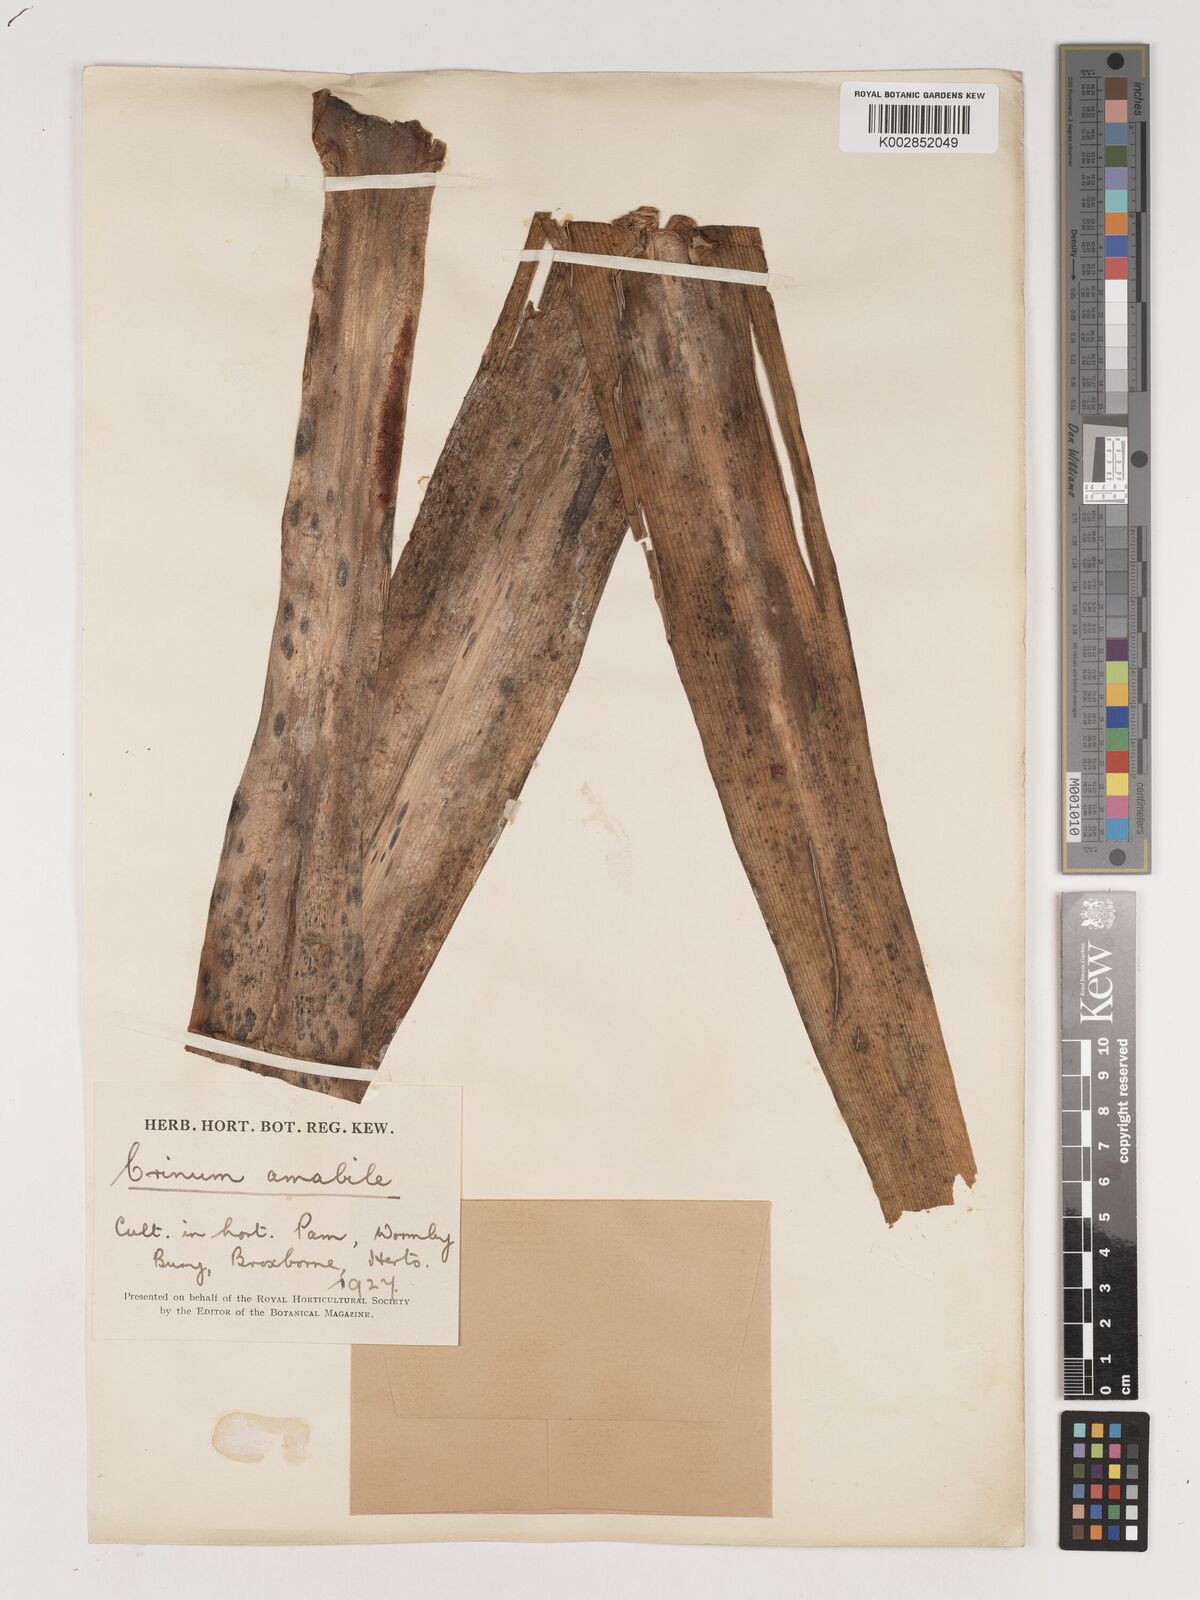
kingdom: Plantae
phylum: Tracheophyta
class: Liliopsida
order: Asparagales
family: Amaryllidaceae
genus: Crinum
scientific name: Crinum amabile
